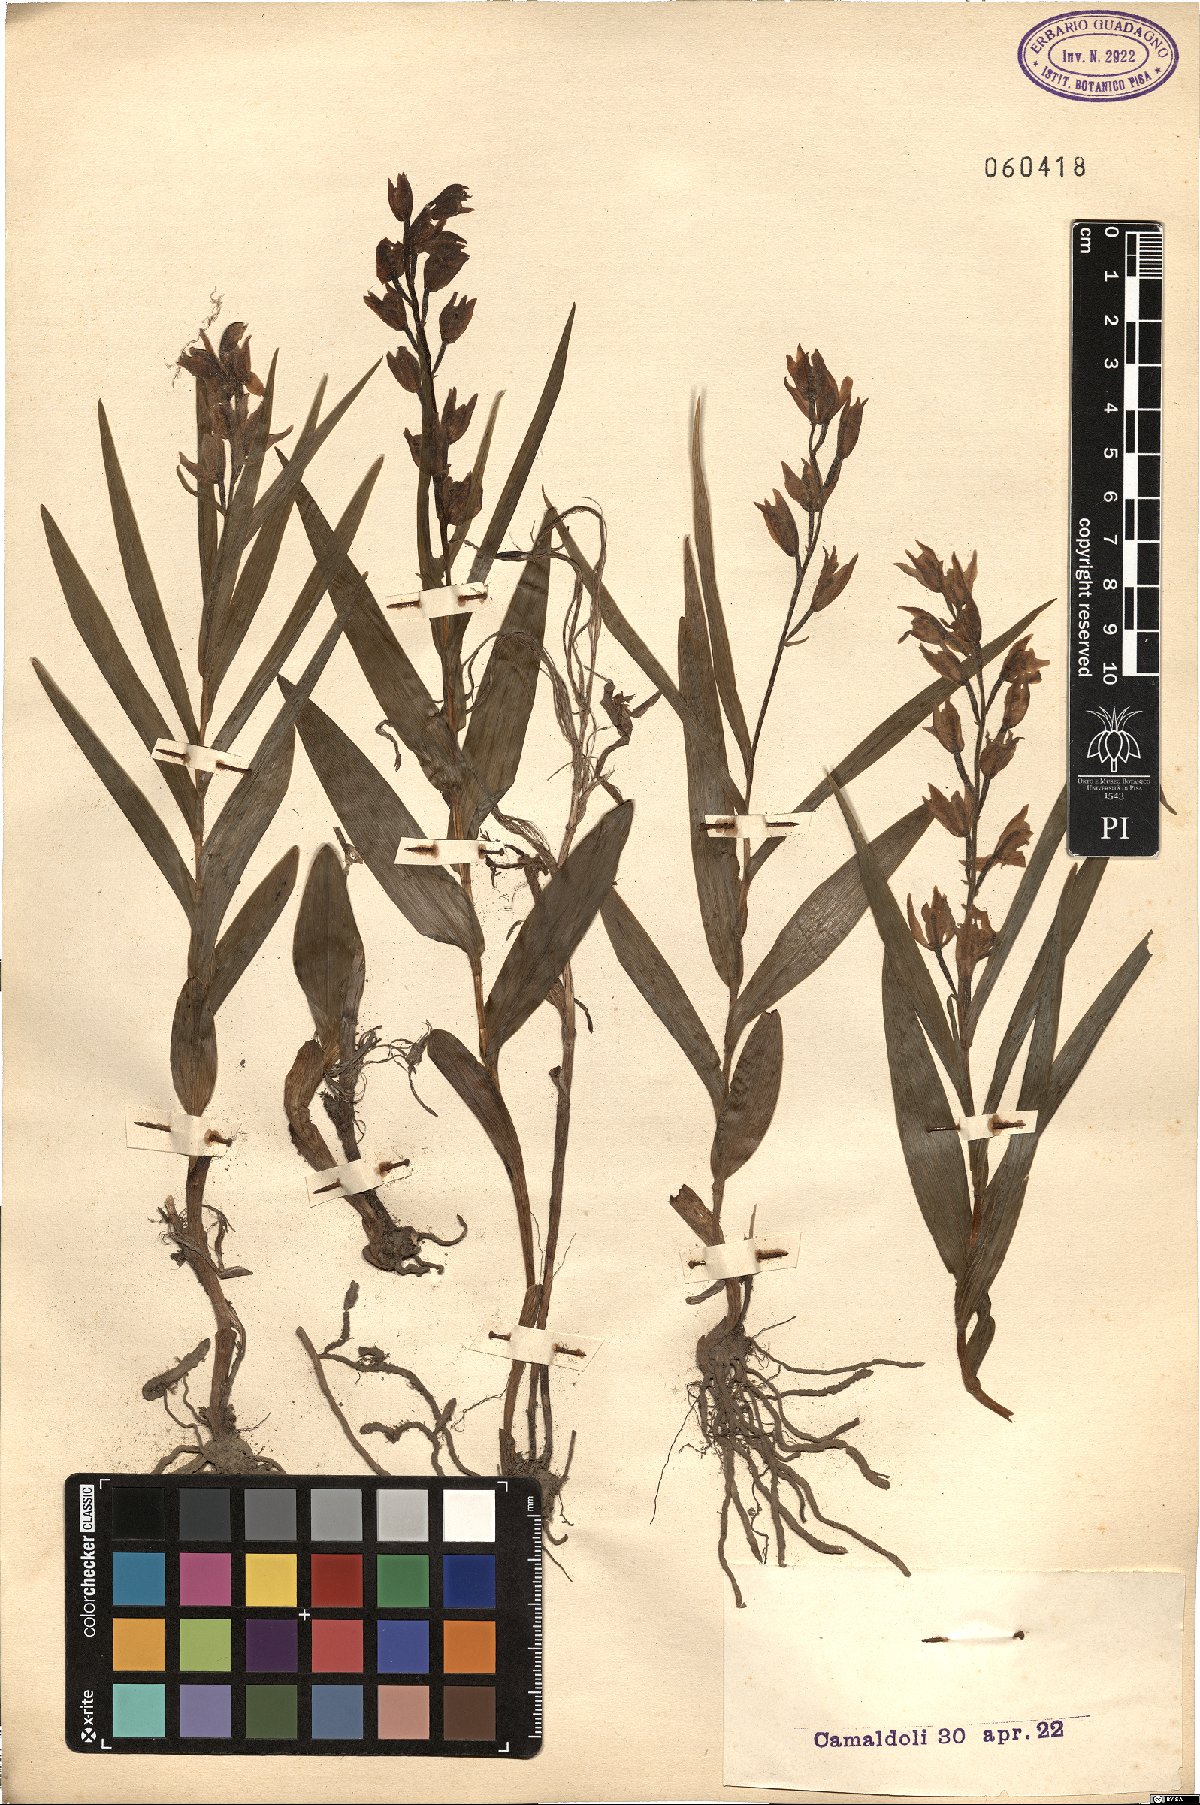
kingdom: Plantae
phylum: Tracheophyta
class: Liliopsida
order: Asparagales
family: Orchidaceae
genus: Cephalanthera
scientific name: Cephalanthera longifolia
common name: Narrow-leaved helleborine
